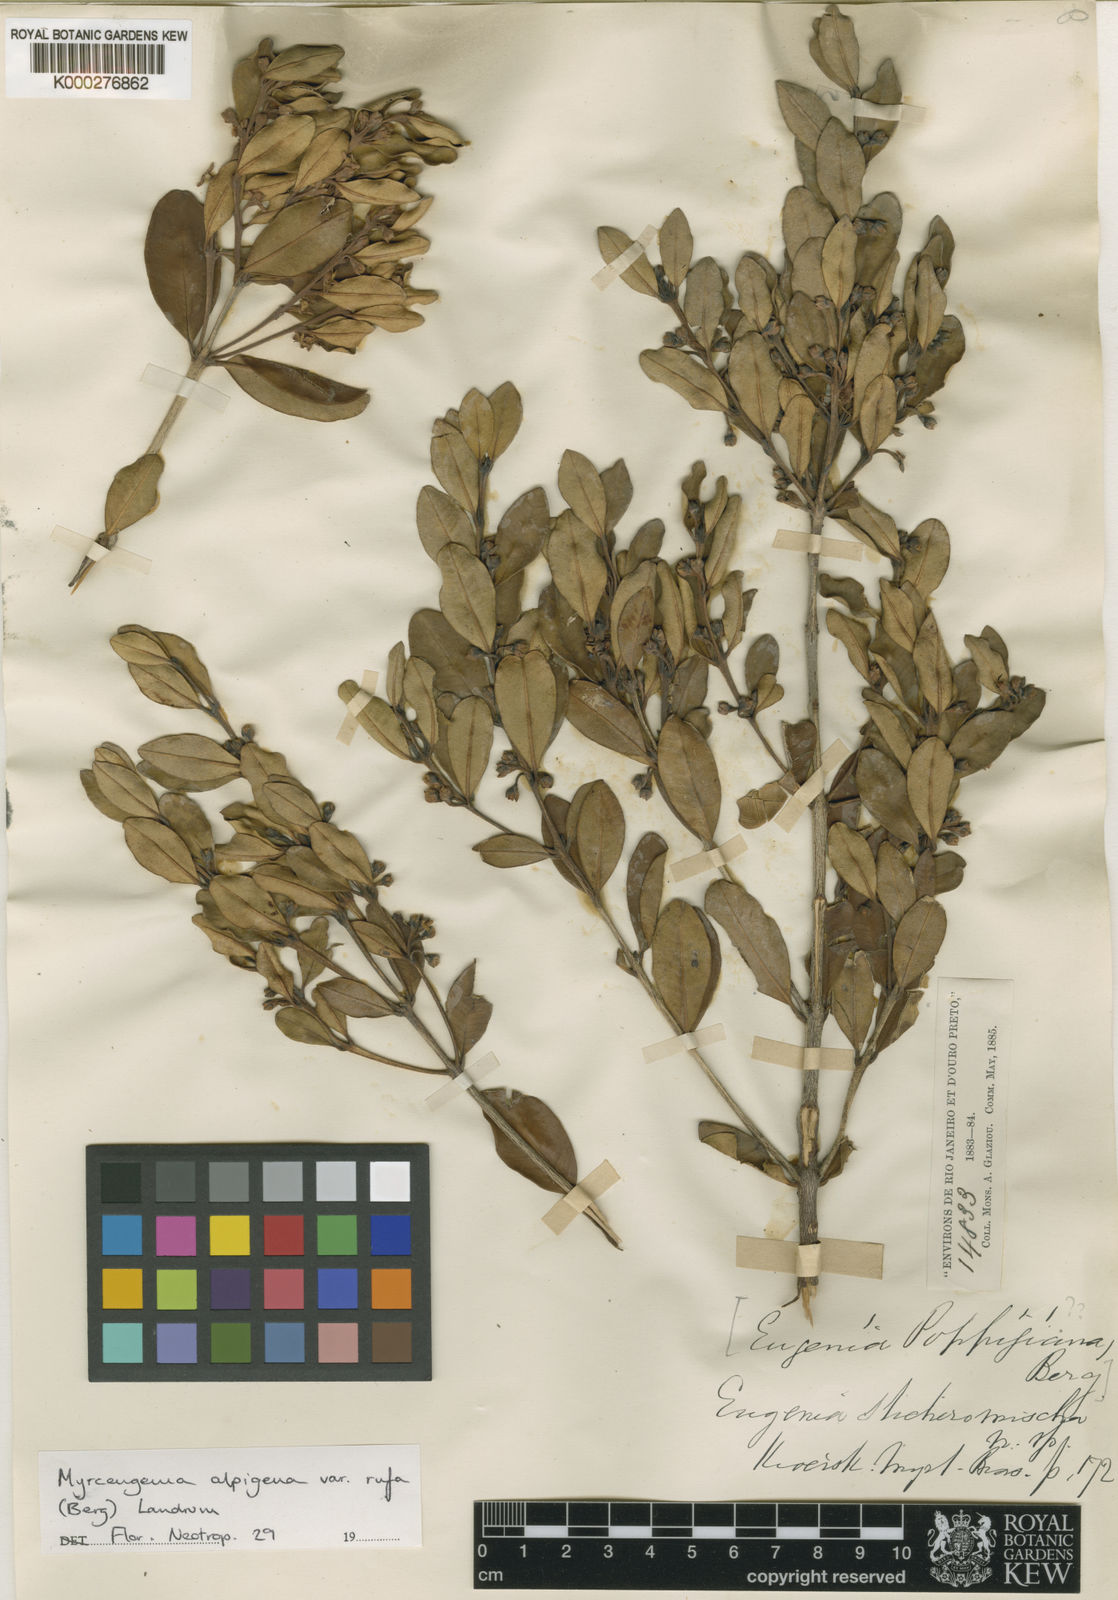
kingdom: Plantae
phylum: Tracheophyta
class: Magnoliopsida
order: Myrtales
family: Myrtaceae
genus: Myrceugenia
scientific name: Myrceugenia alpigena
